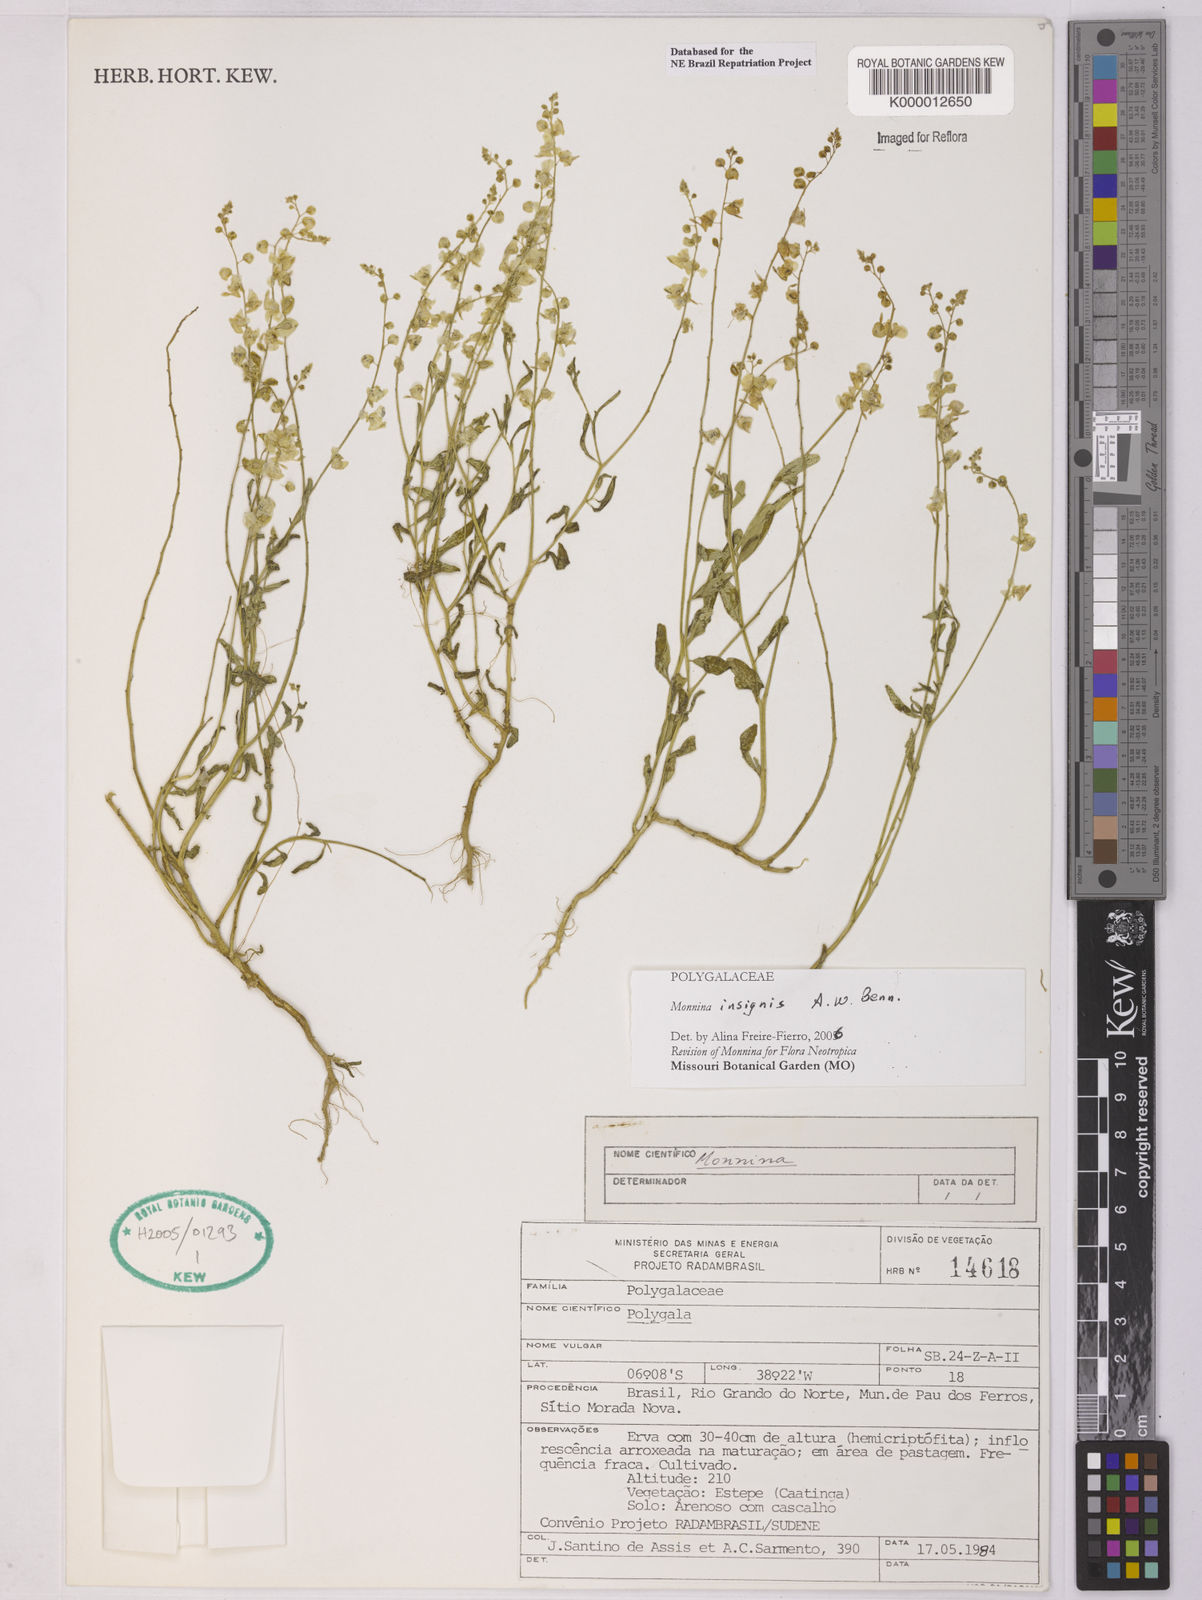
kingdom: Plantae
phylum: Tracheophyta
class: Magnoliopsida
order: Fabales
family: Polygalaceae
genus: Ancylotropis
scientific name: Ancylotropis insignis
